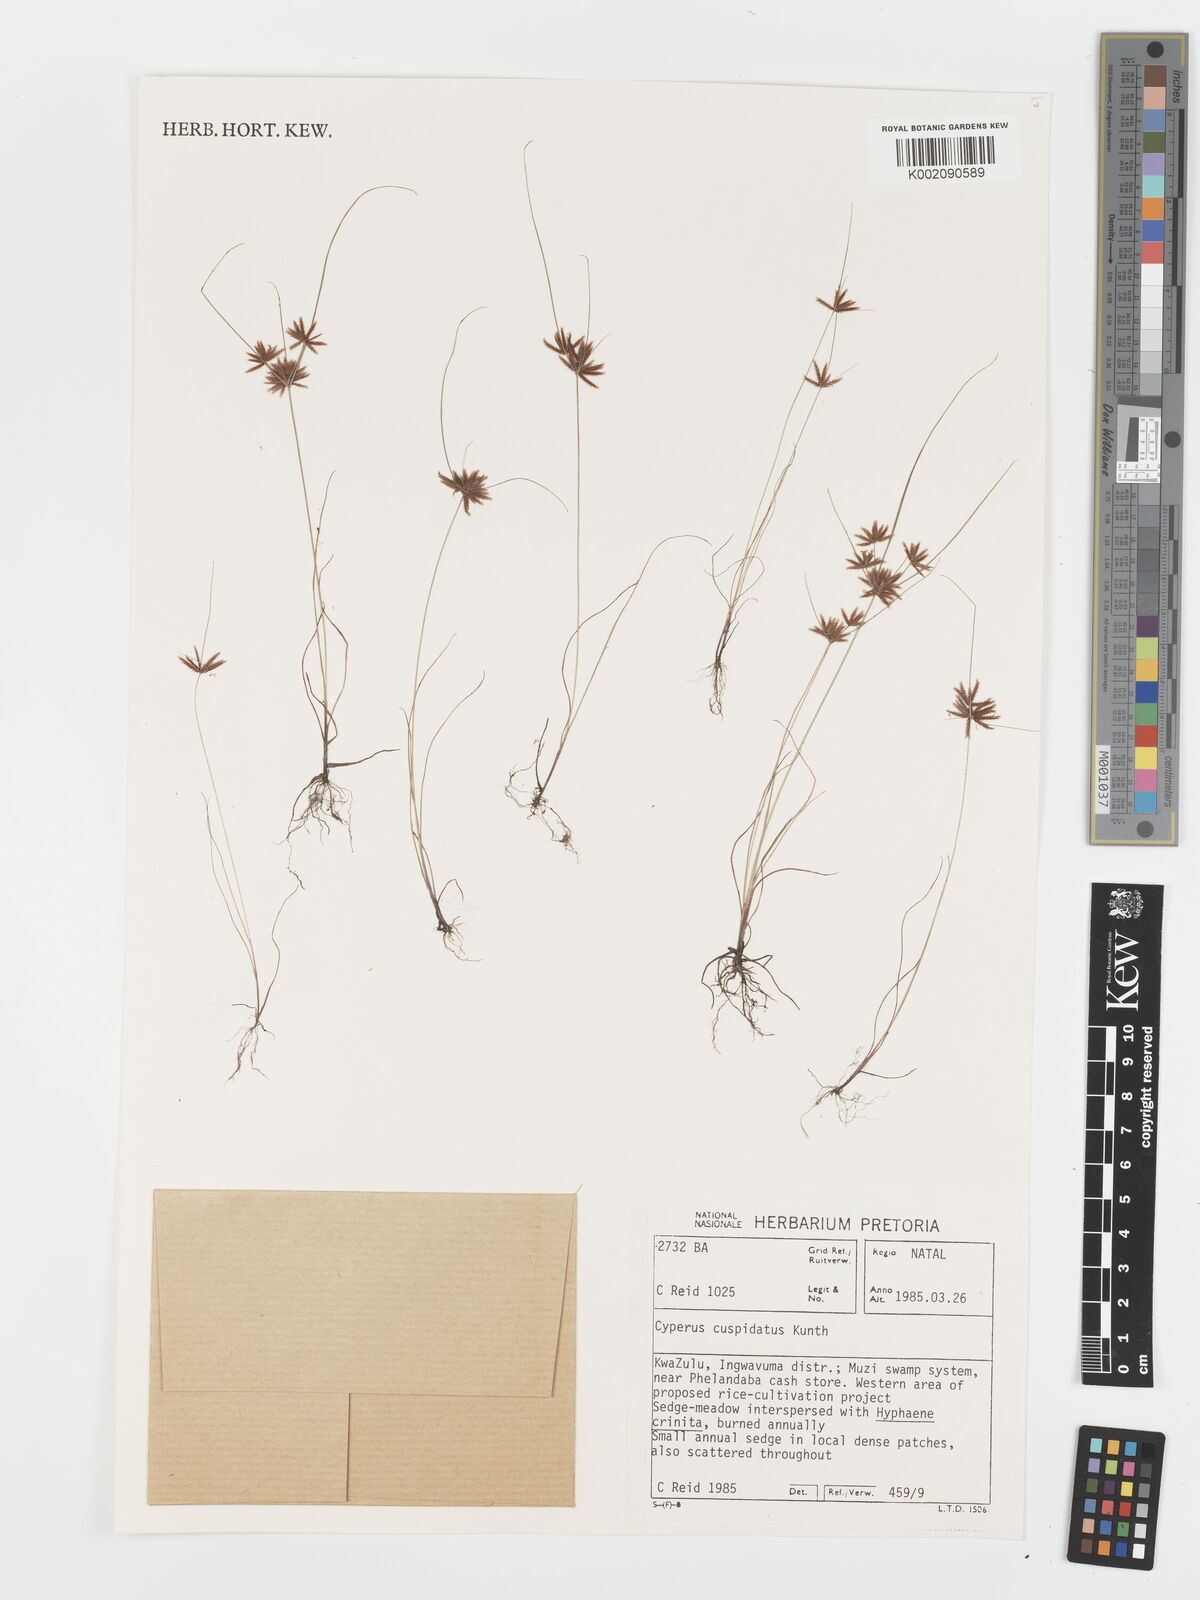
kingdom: Plantae
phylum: Tracheophyta
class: Liliopsida
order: Poales
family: Cyperaceae
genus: Cyperus
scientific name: Cyperus cuspidatus
